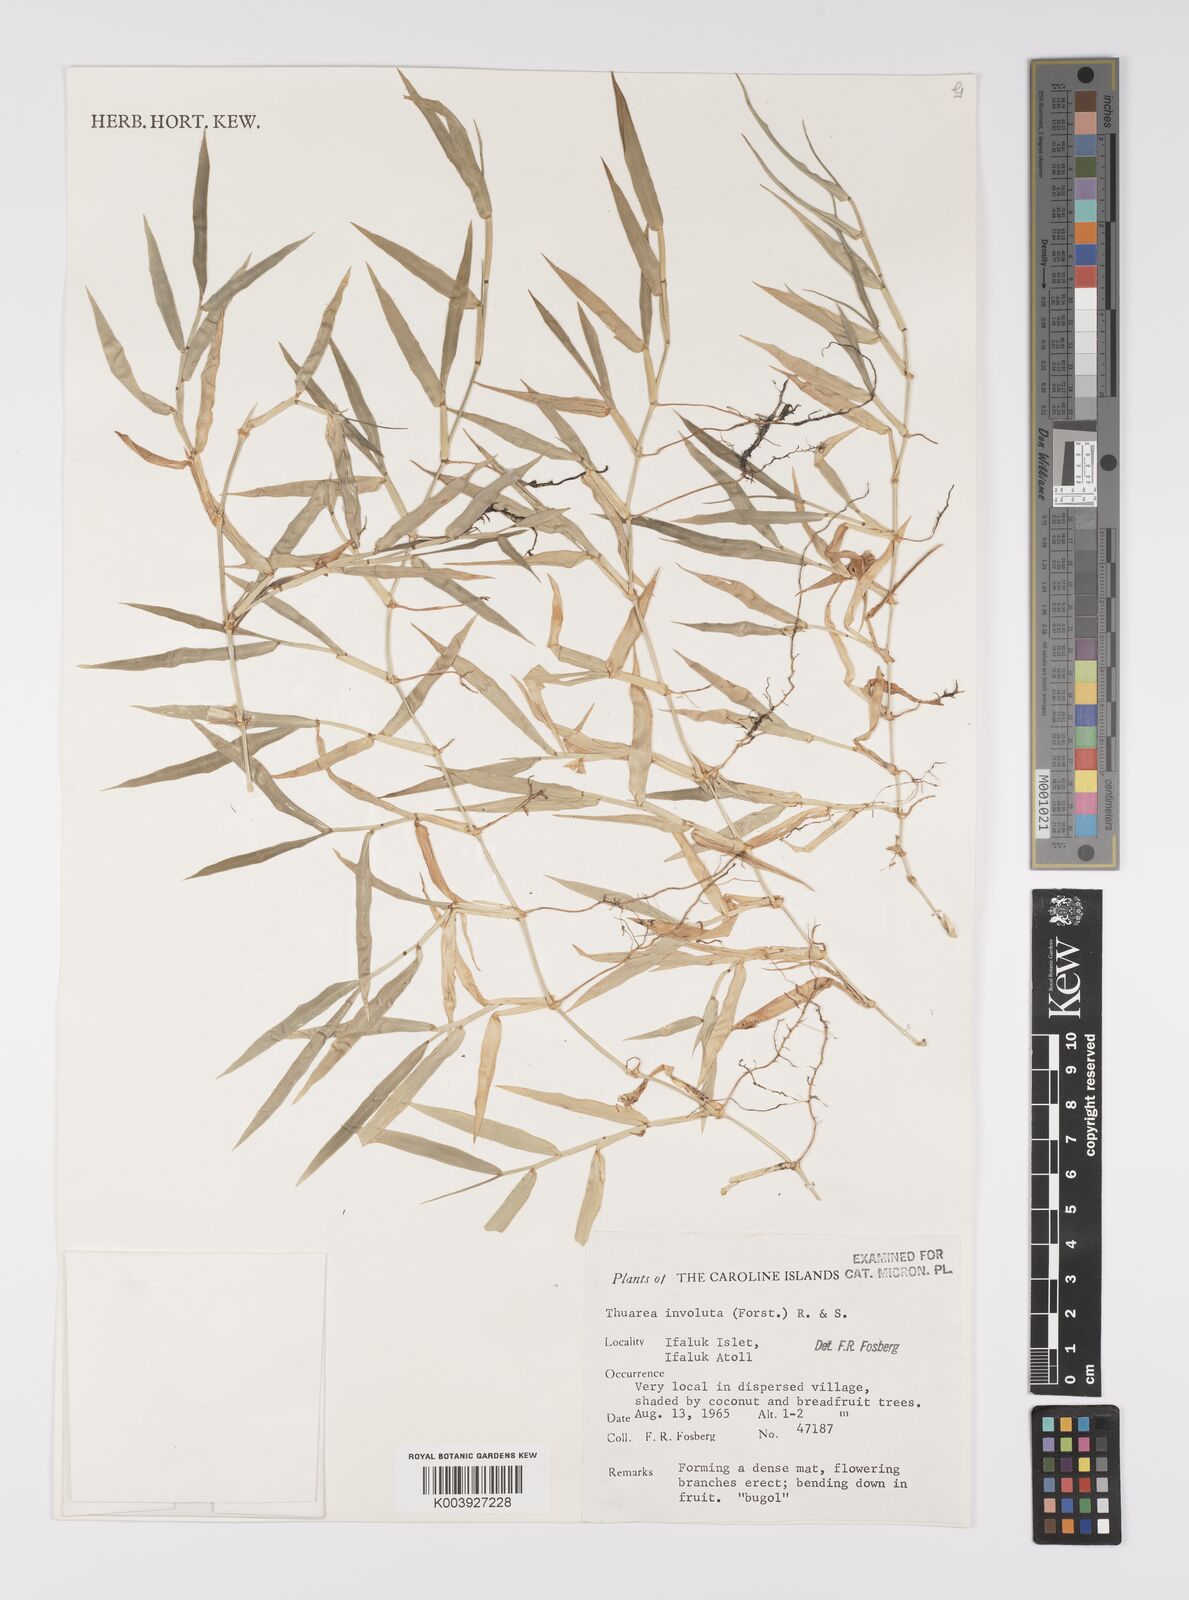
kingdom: Plantae
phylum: Tracheophyta
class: Liliopsida
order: Poales
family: Poaceae
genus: Thuarea
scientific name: Thuarea involuta
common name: Tropical beach grass
